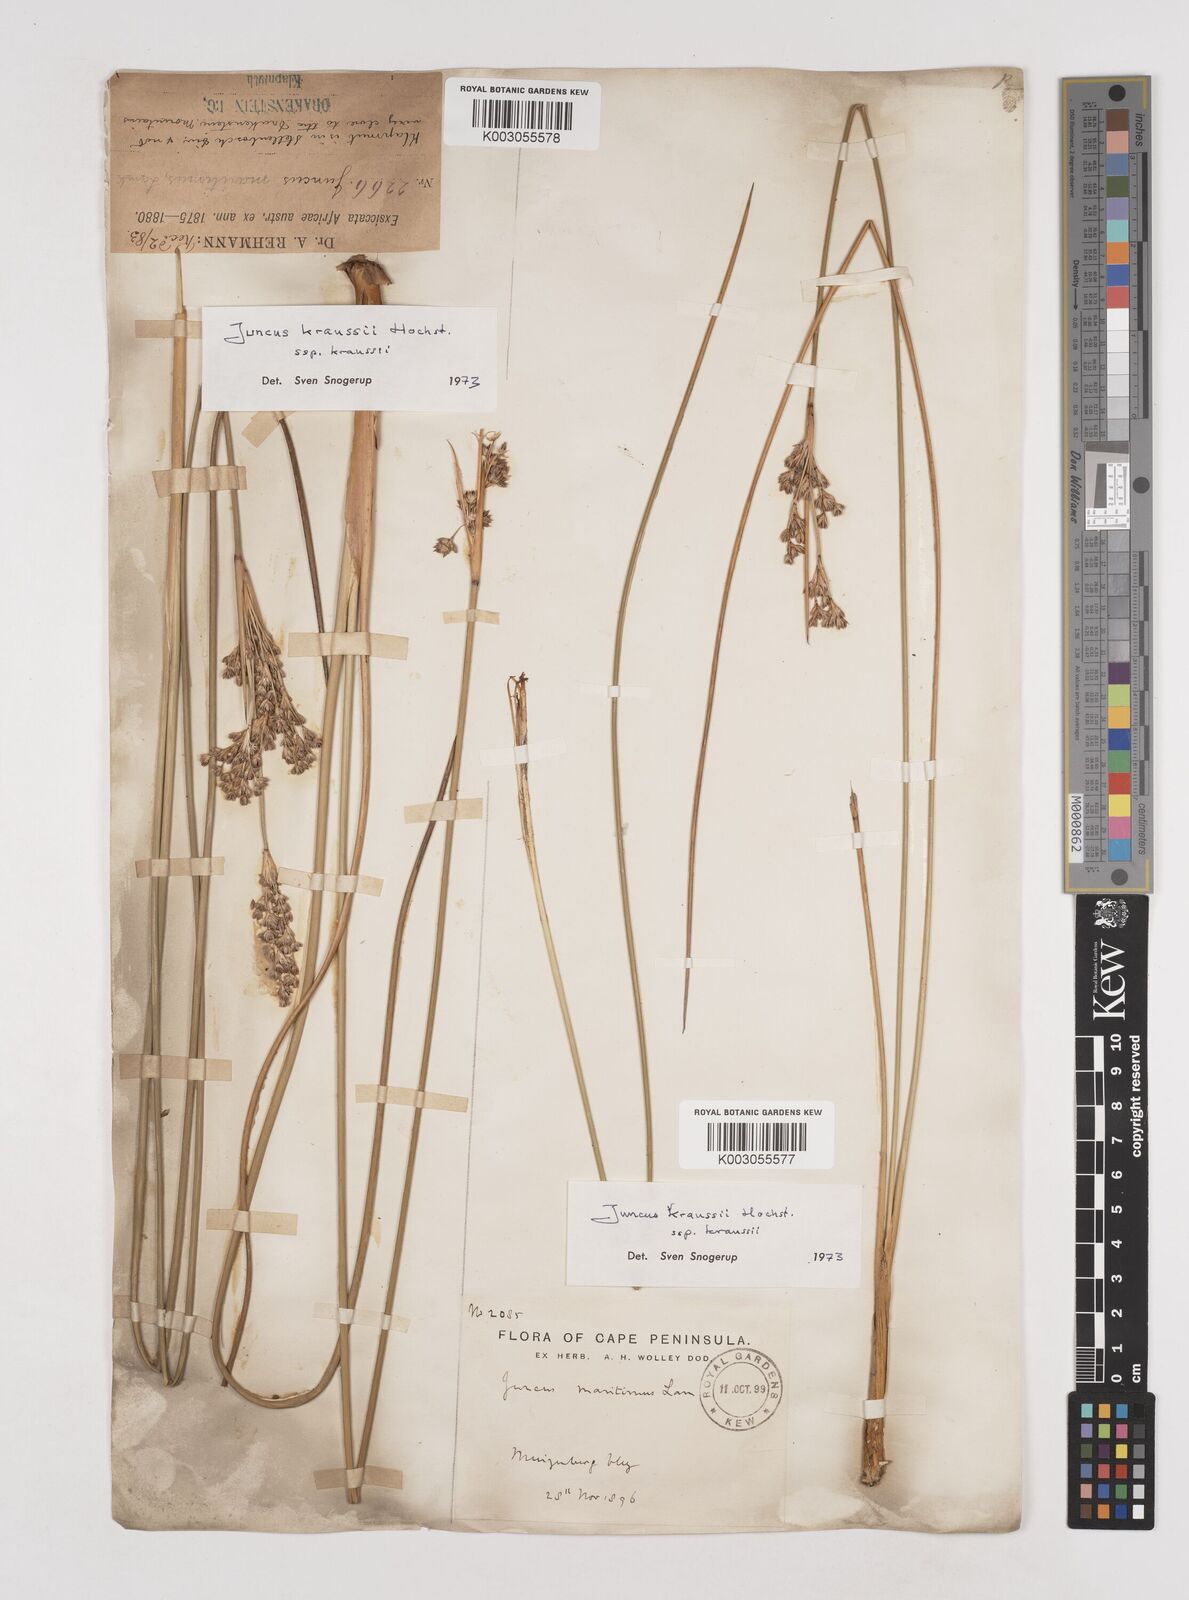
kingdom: Plantae
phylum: Tracheophyta
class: Liliopsida
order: Poales
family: Juncaceae
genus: Juncus
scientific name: Juncus kraussii
